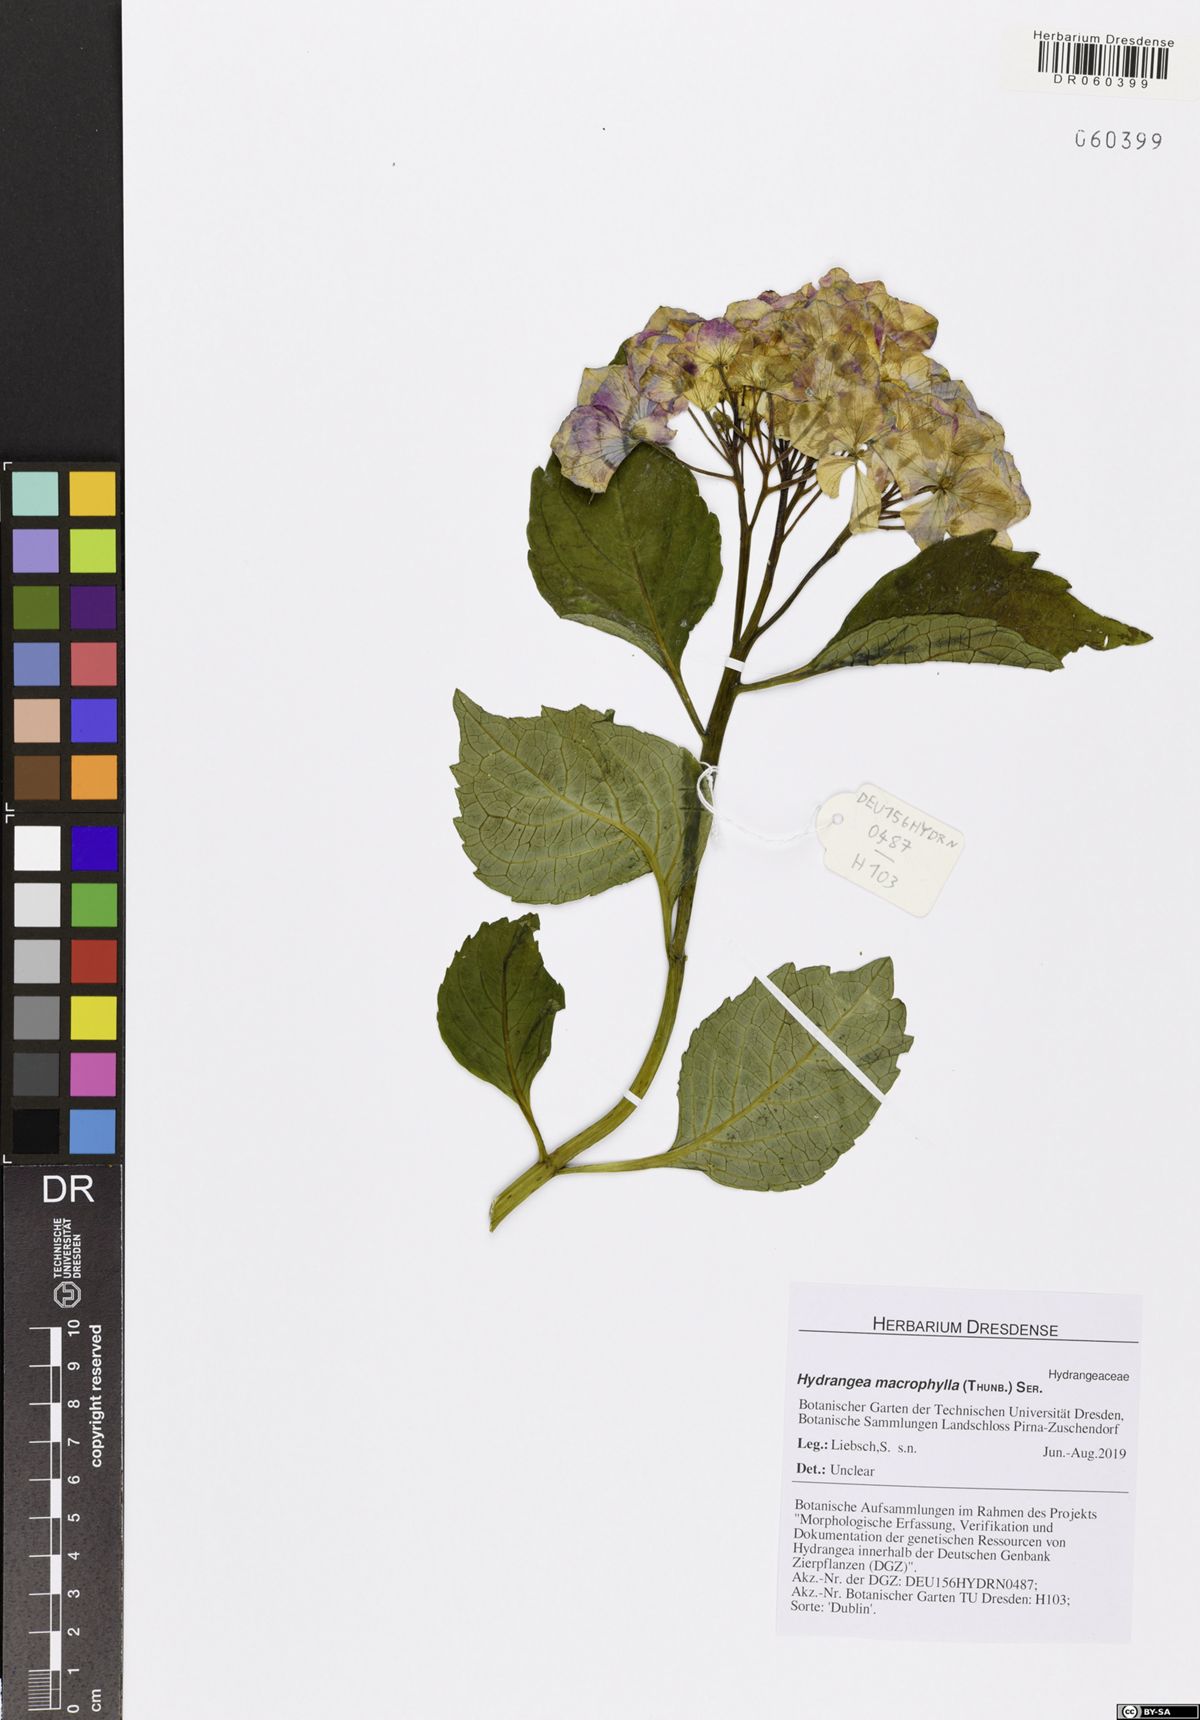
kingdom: Plantae
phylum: Tracheophyta
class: Magnoliopsida
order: Cornales
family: Hydrangeaceae
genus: Hydrangea
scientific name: Hydrangea macrophylla
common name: Hydrangea
